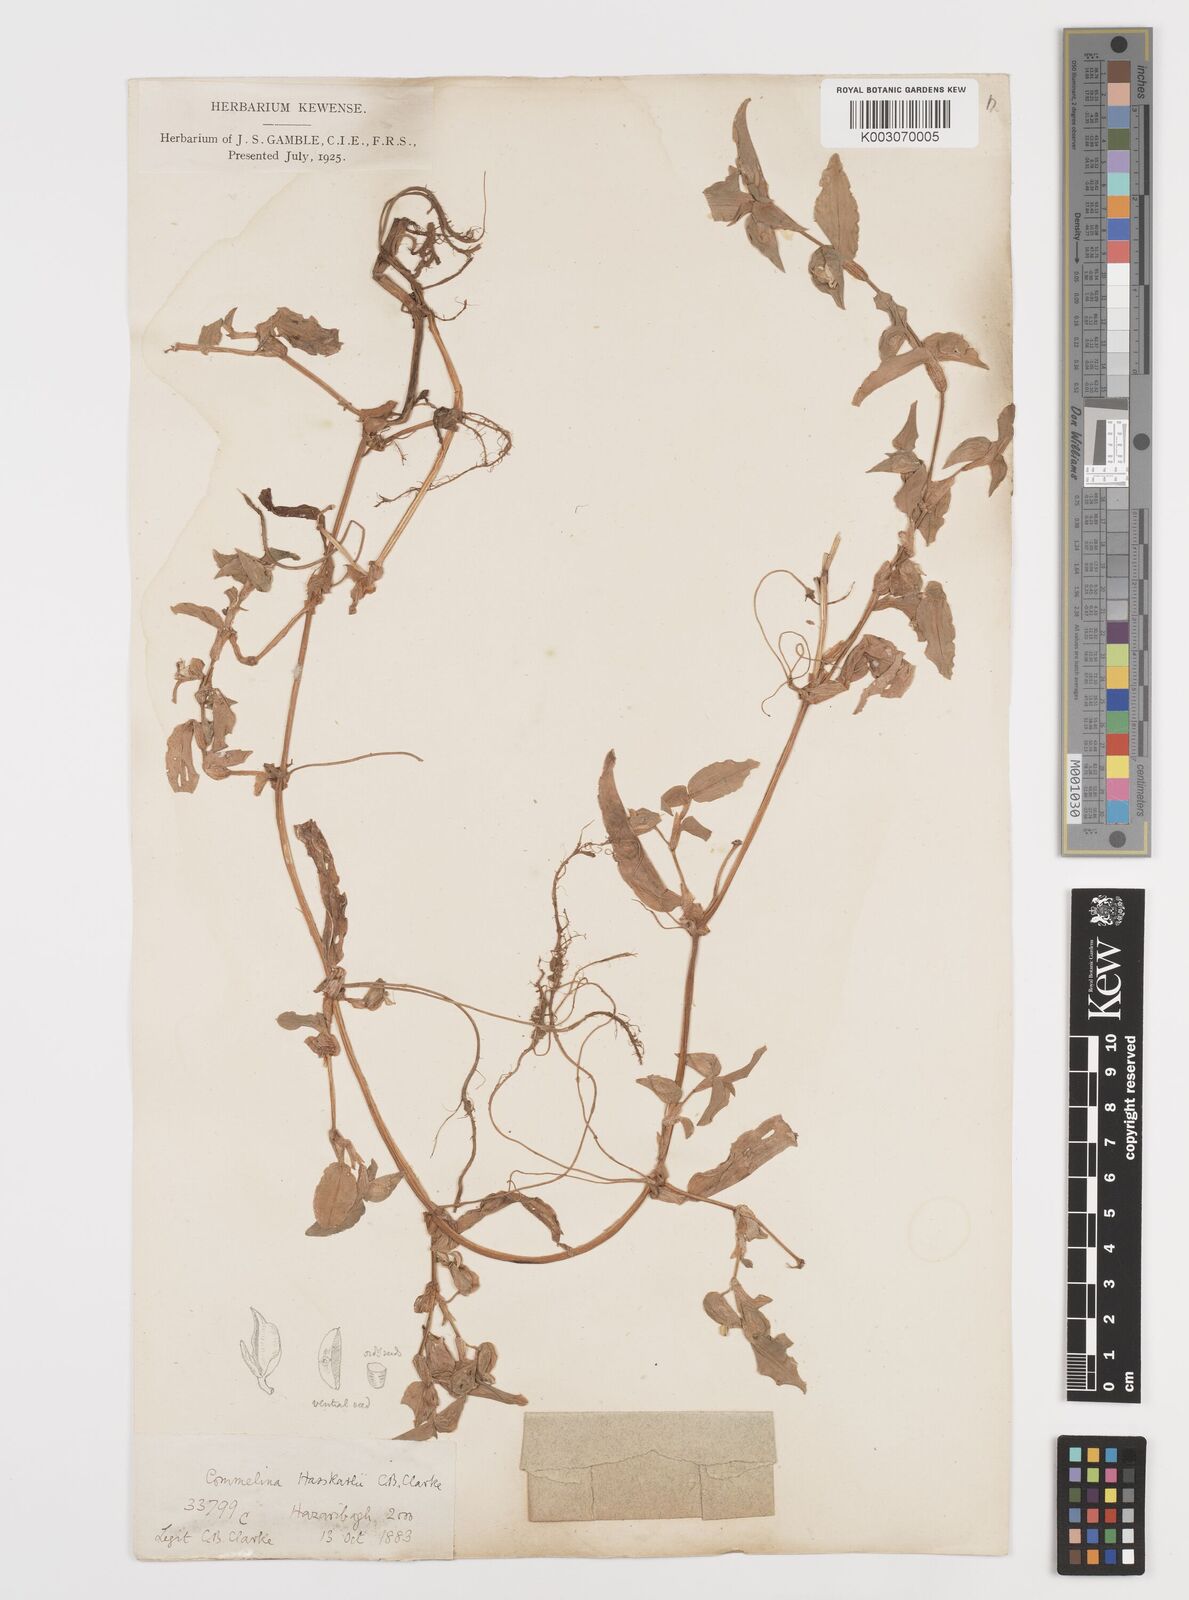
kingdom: Plantae
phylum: Tracheophyta
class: Liliopsida
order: Commelinales
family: Commelinaceae
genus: Commelina
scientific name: Commelina caroliniana
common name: Carolina dayflower
